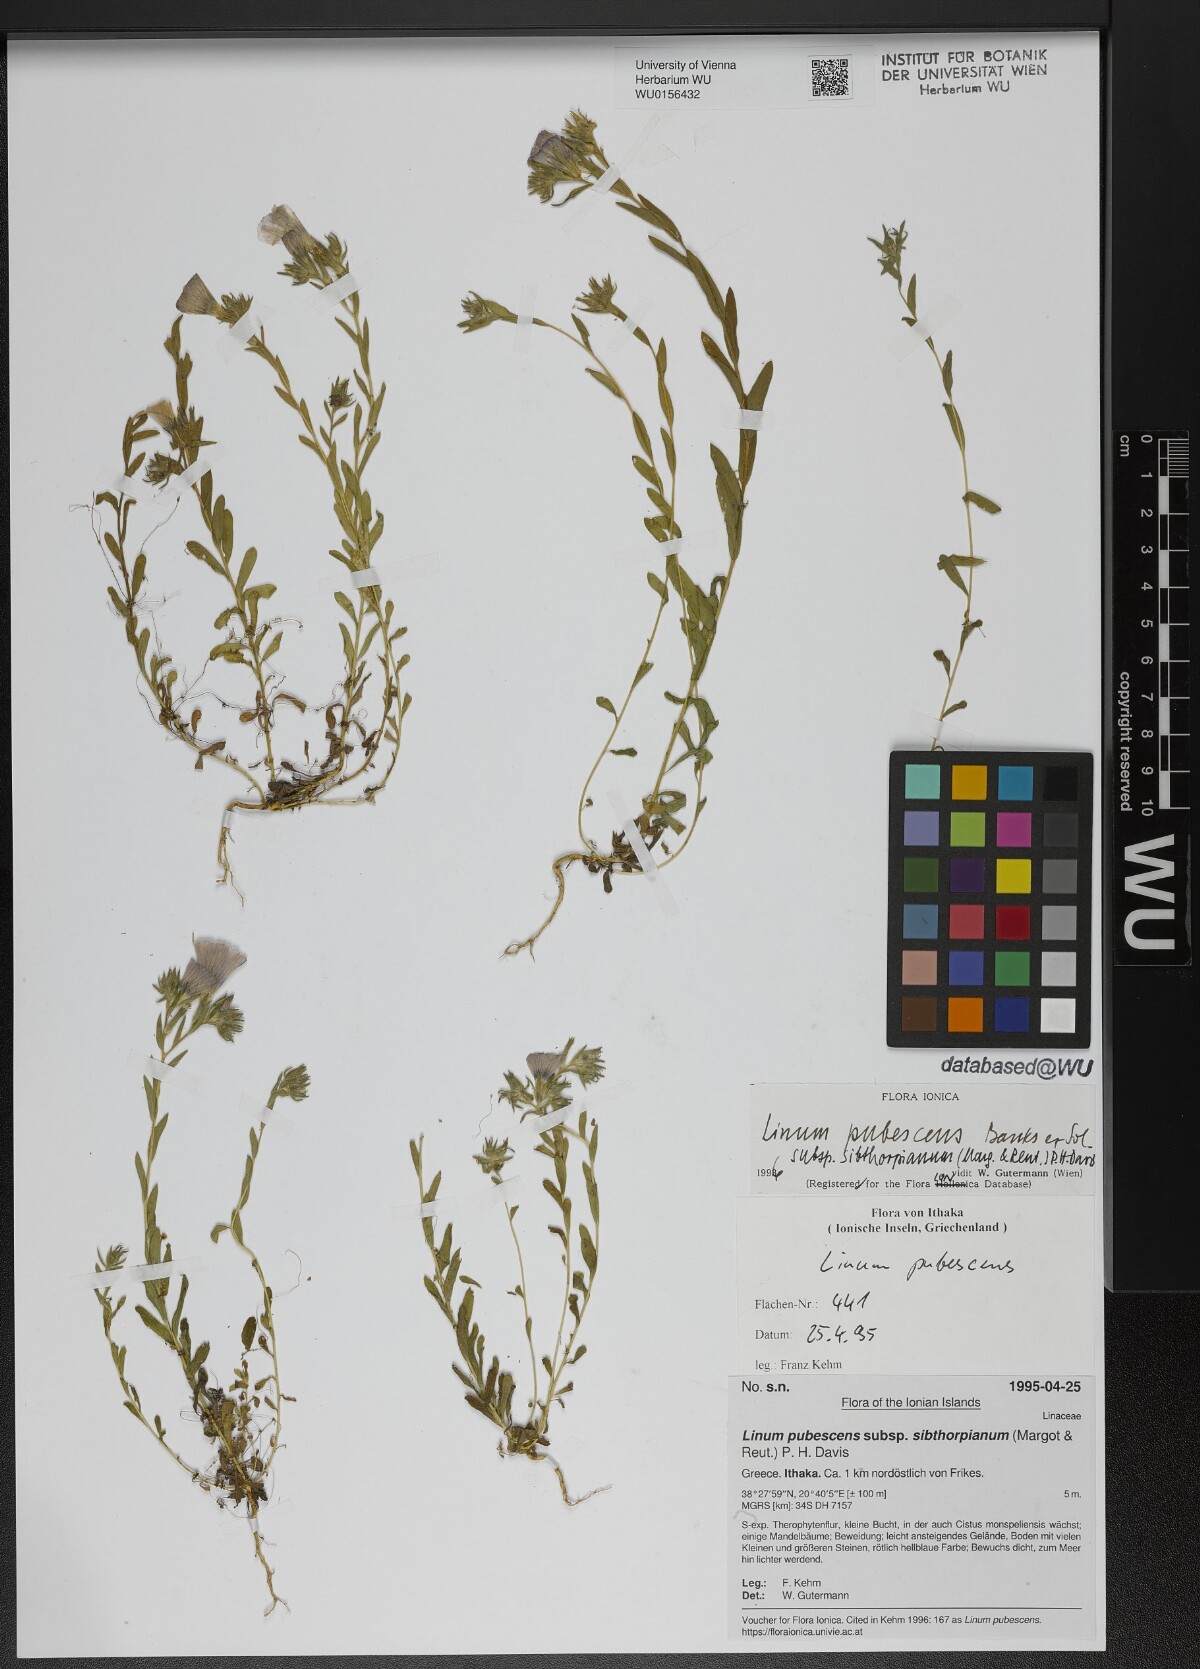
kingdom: Plantae
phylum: Tracheophyta
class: Magnoliopsida
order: Malpighiales
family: Linaceae
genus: Linum
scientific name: Linum pubescens
